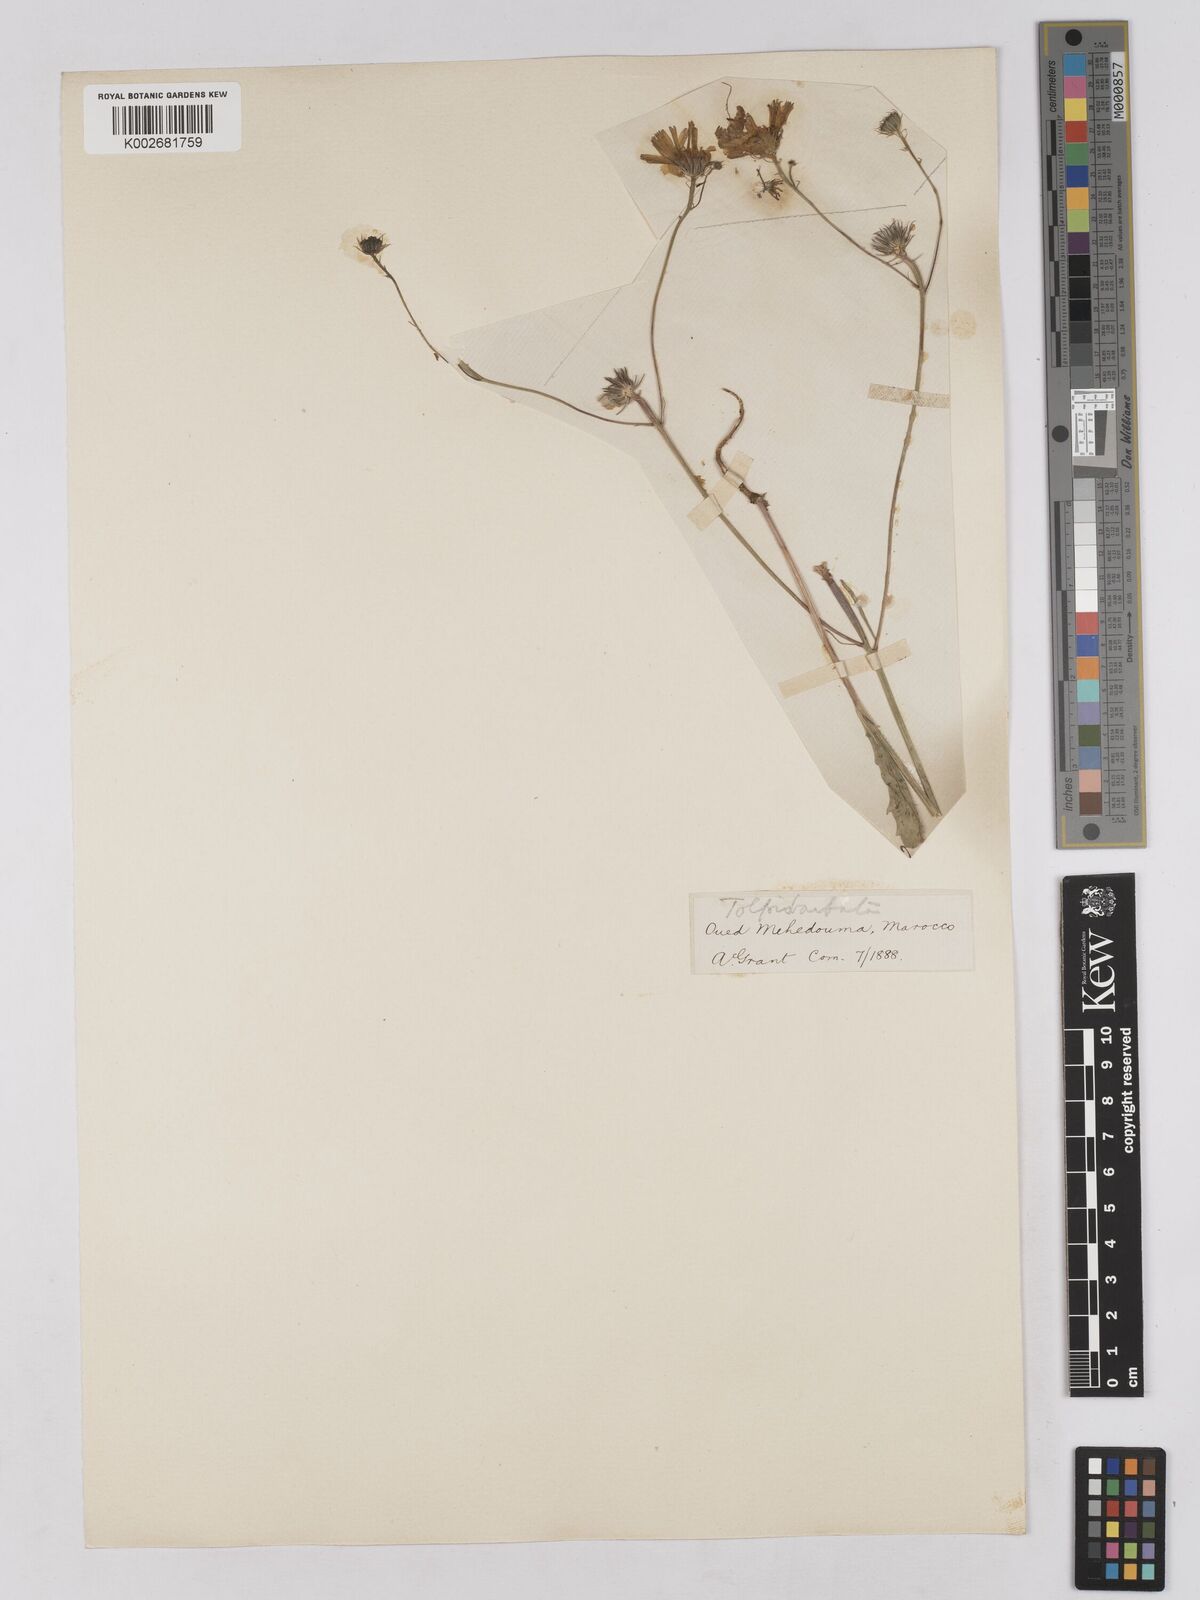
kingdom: Plantae
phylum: Tracheophyta
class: Magnoliopsida
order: Asterales
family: Asteraceae
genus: Tolpis
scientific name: Tolpis barbata
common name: Yellow hawkweed
